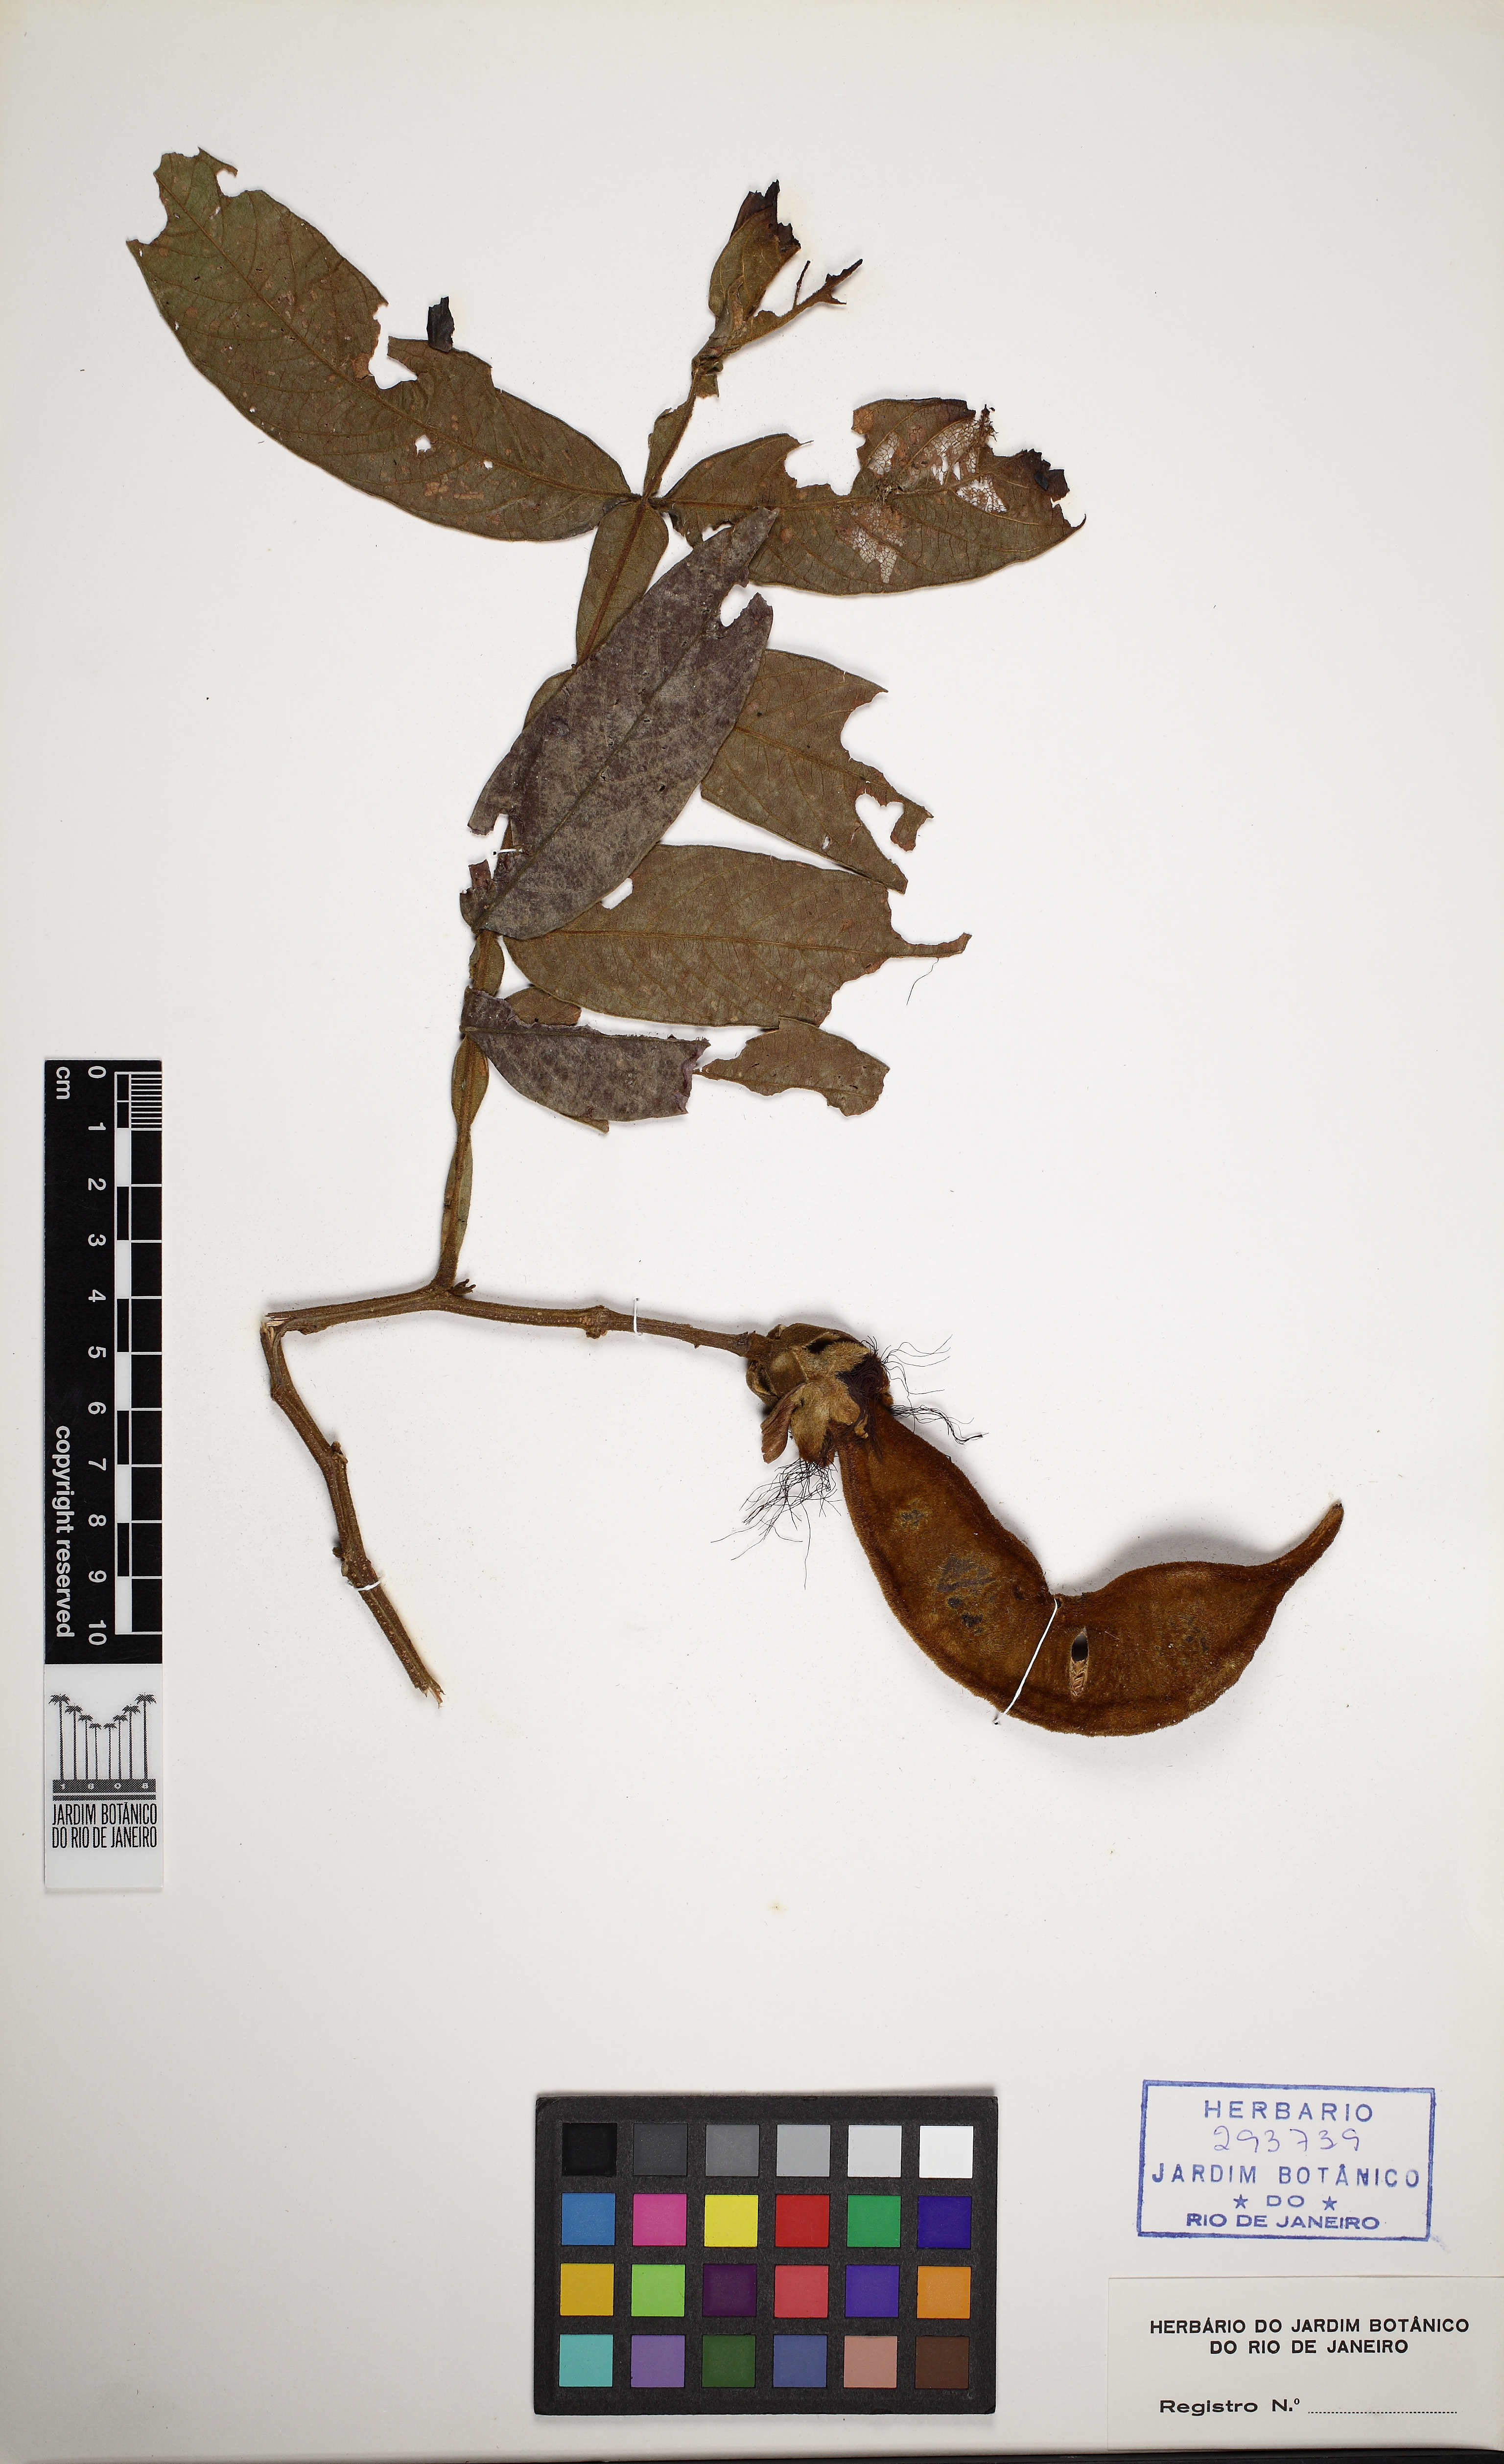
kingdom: Plantae
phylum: Tracheophyta
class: Magnoliopsida
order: Fabales
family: Fabaceae
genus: Inga
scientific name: Inga sessilis
